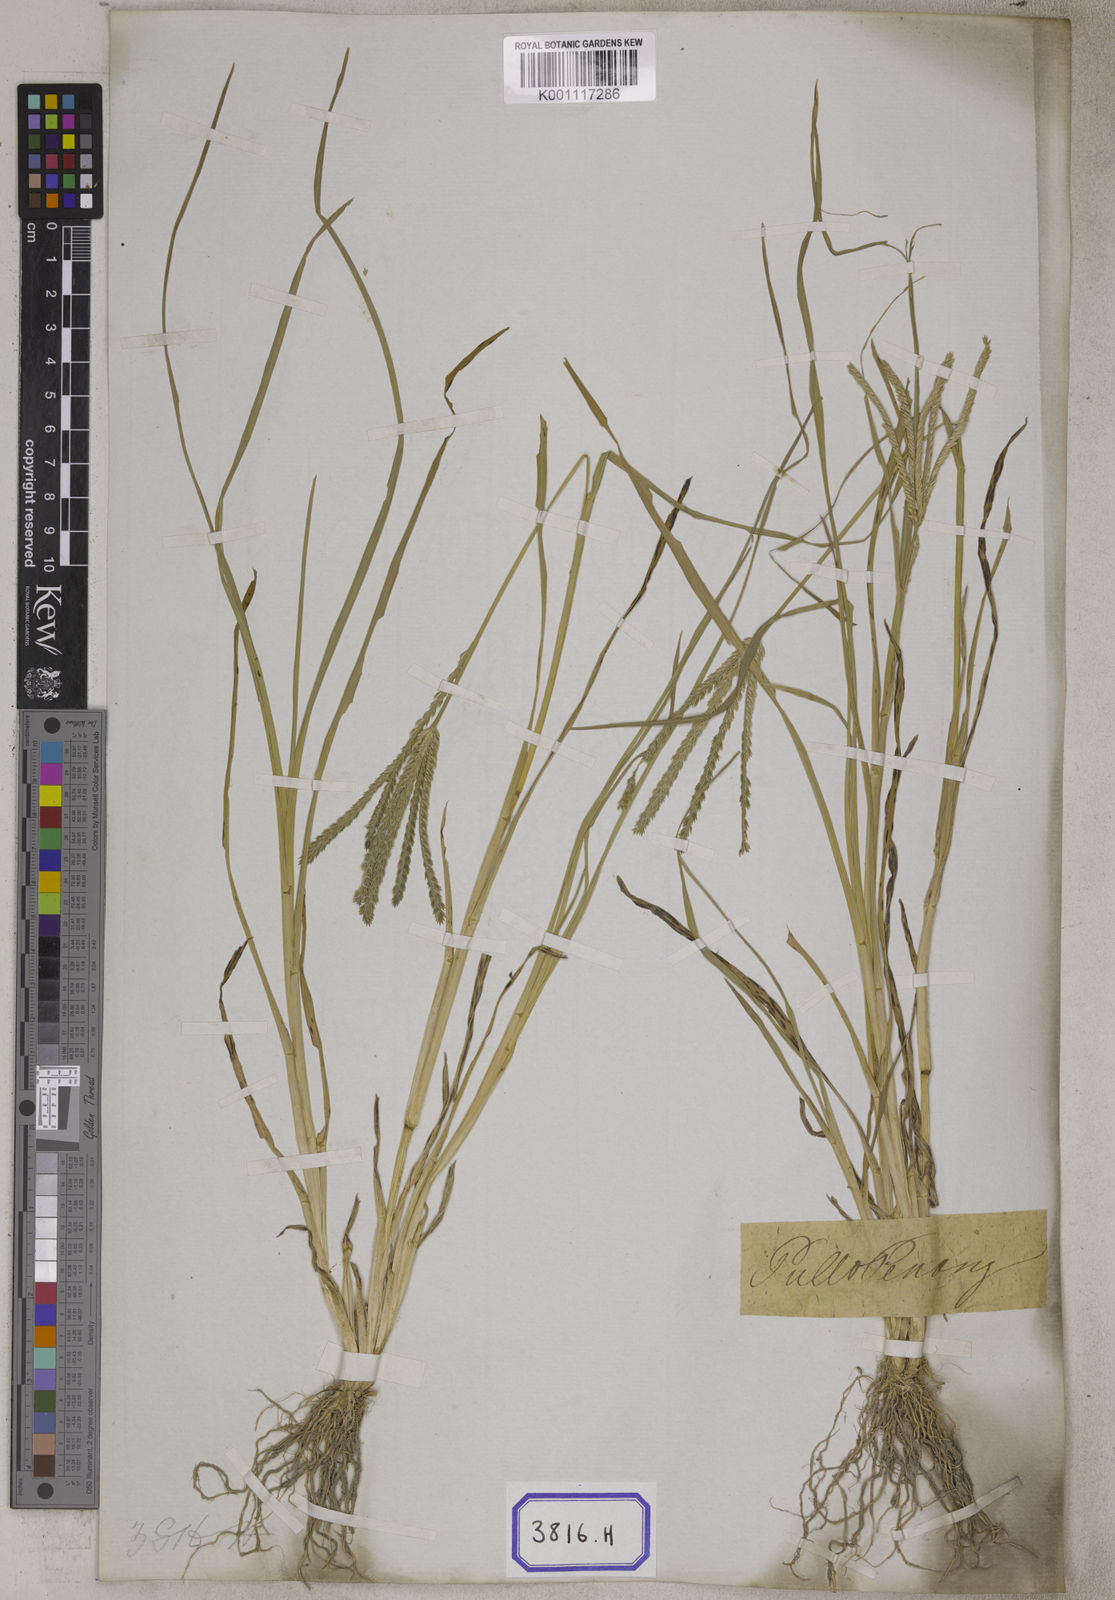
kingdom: Plantae
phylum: Tracheophyta
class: Liliopsida
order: Poales
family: Poaceae
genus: Eleusine
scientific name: Eleusine
